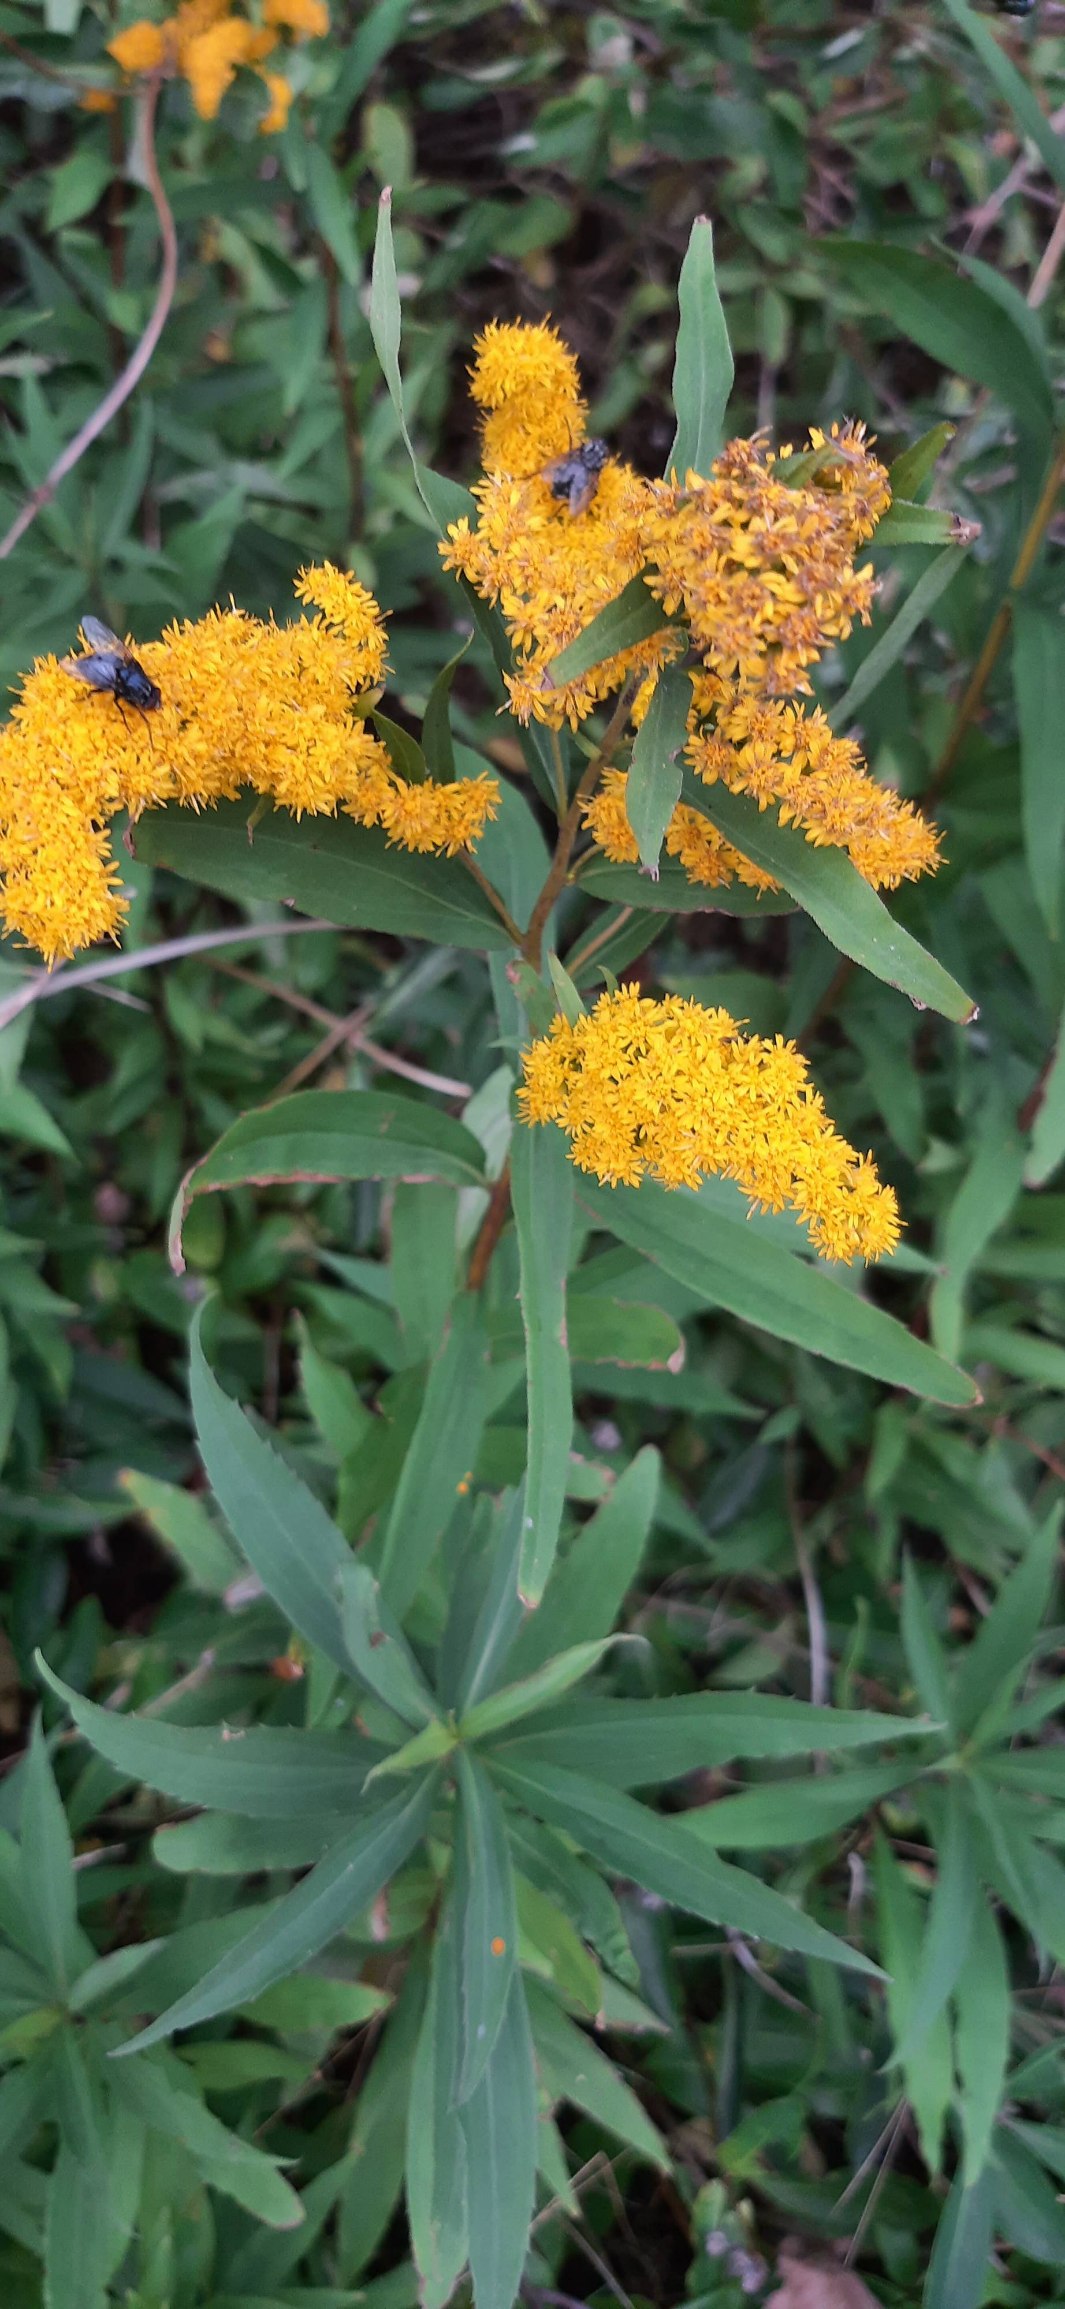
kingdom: Plantae
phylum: Tracheophyta
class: Magnoliopsida
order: Asterales
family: Asteraceae
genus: Solidago
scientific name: Solidago gigantea
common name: Sildig gyldenris
